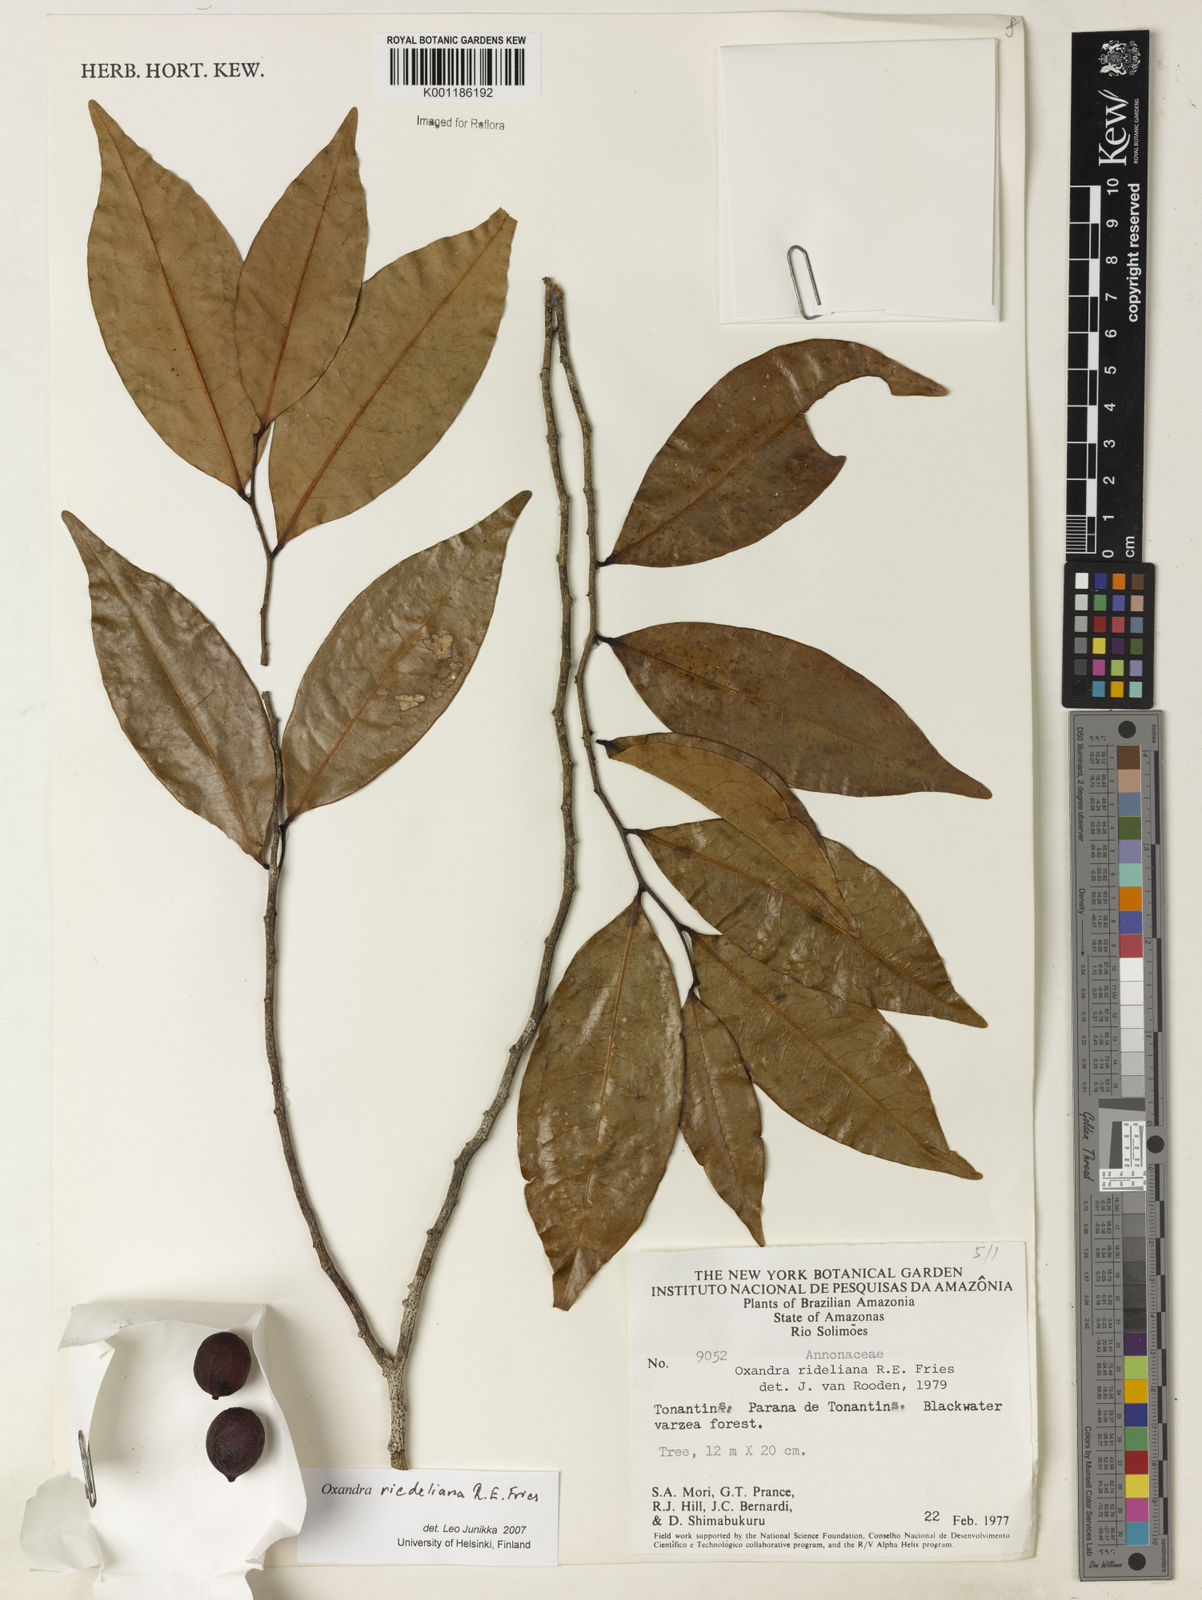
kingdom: Plantae
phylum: Tracheophyta
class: Magnoliopsida
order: Magnoliales
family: Annonaceae
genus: Oxandra
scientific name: Oxandra riedeliana
